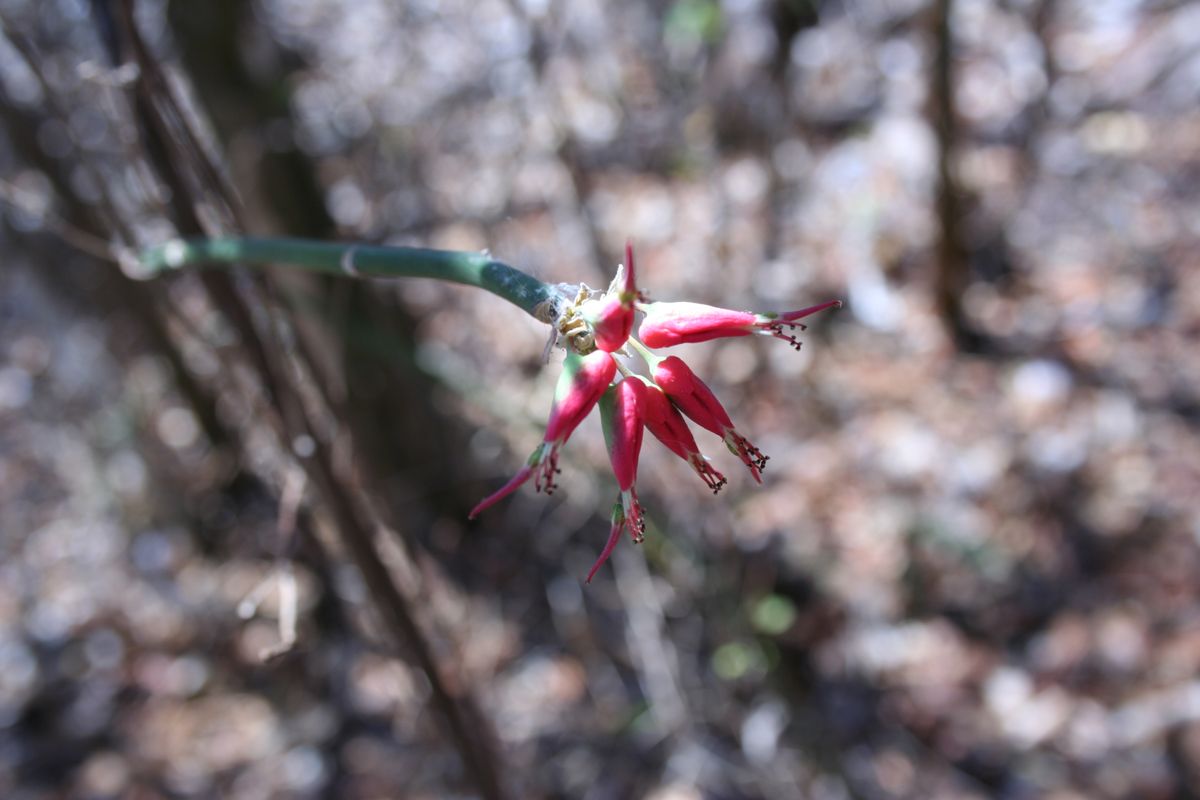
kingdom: Plantae
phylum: Tracheophyta
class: Magnoliopsida
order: Malpighiales
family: Euphorbiaceae
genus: Euphorbia
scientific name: Euphorbia tithymaloides
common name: Slipperplant
